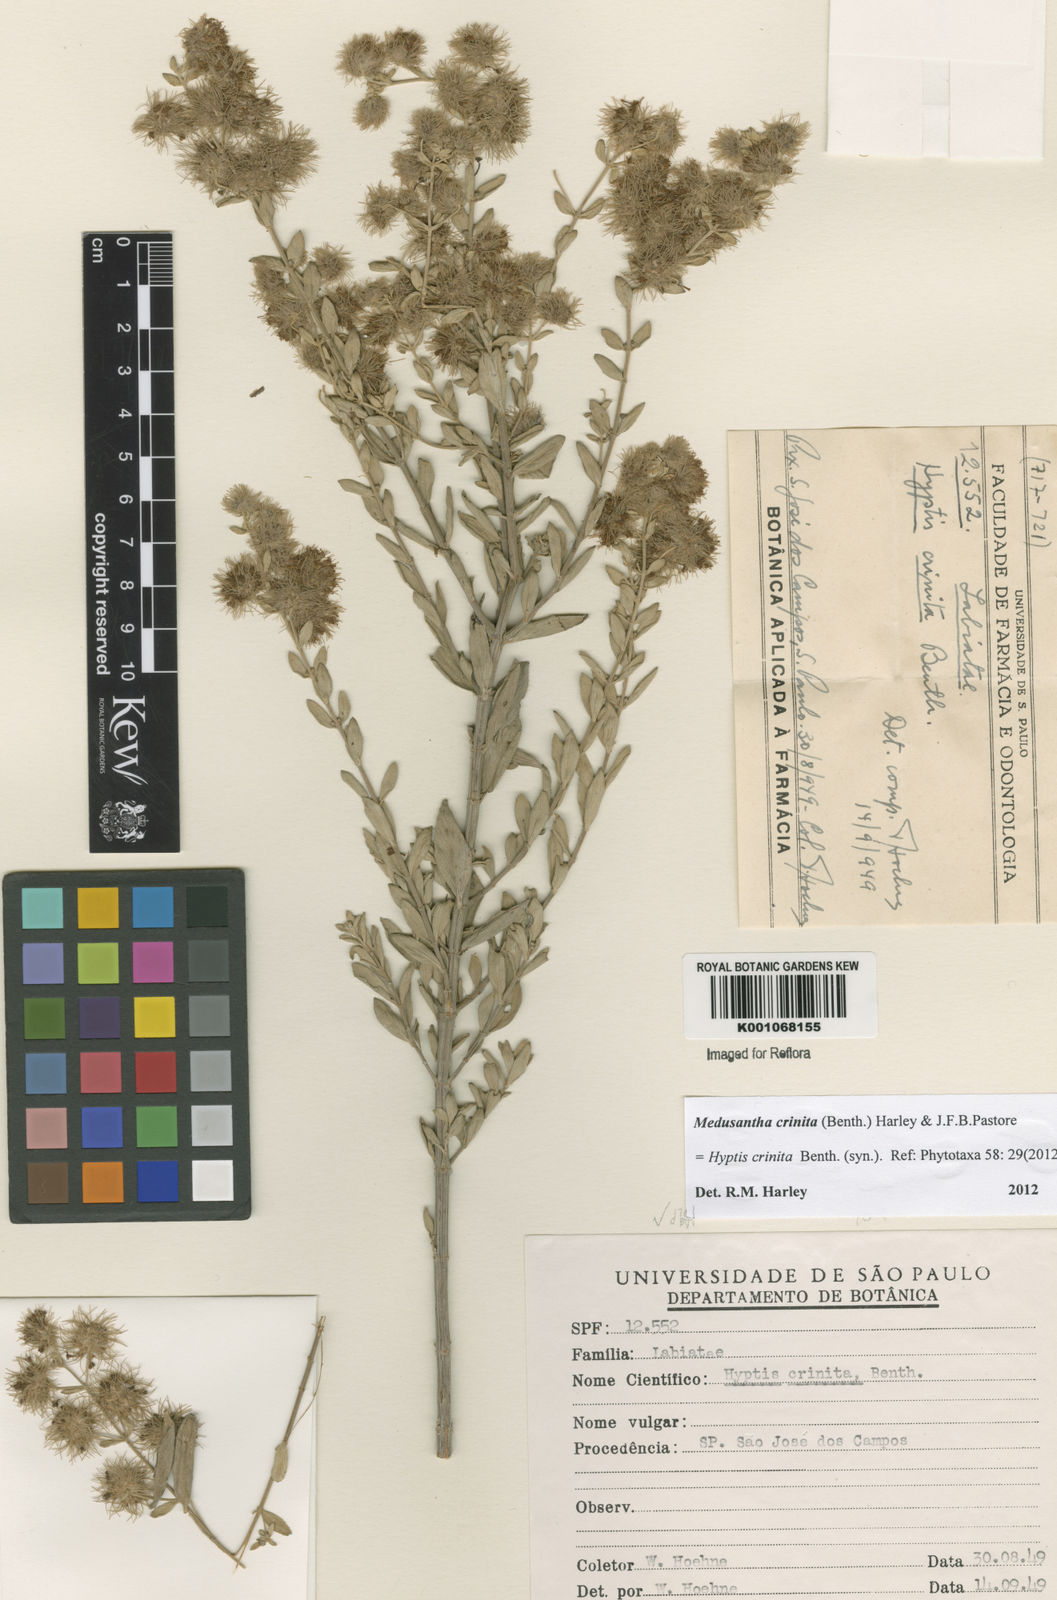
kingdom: Plantae
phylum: Tracheophyta
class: Magnoliopsida
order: Lamiales
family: Lamiaceae
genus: Medusantha
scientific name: Medusantha crinita
